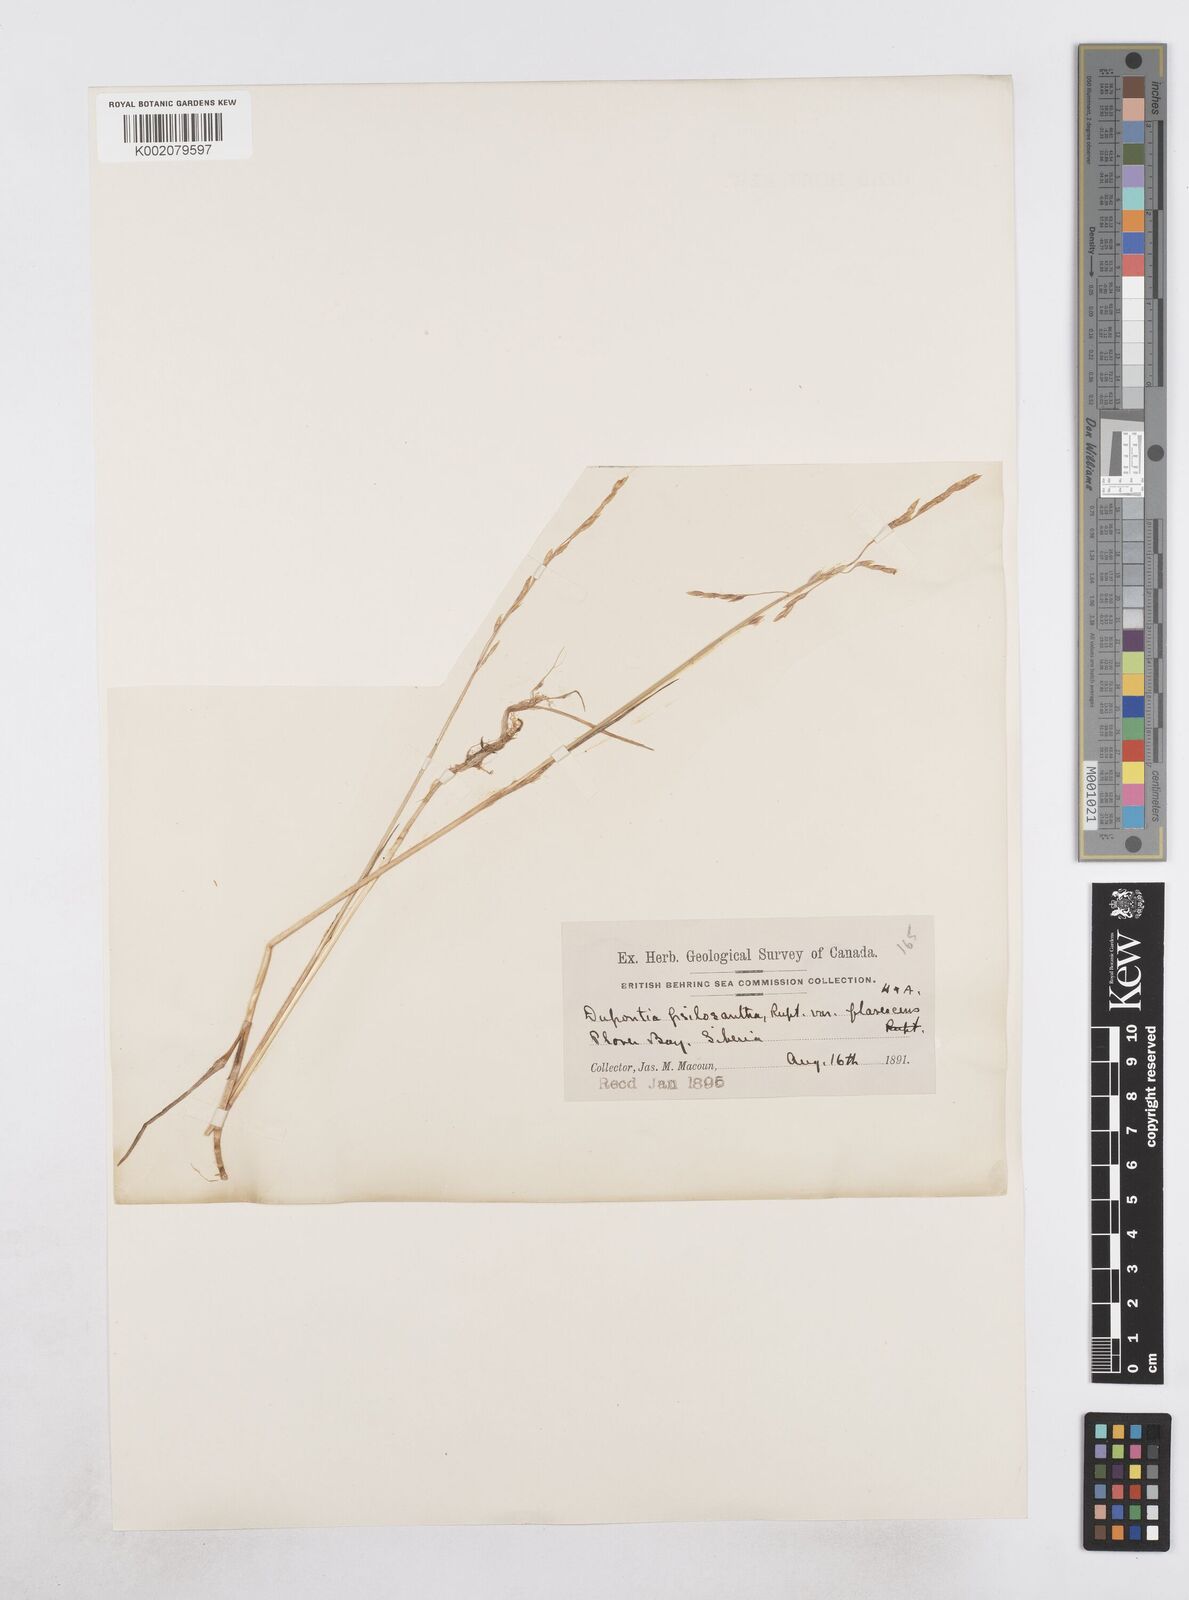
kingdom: Plantae
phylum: Tracheophyta
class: Liliopsida
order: Poales
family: Poaceae
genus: Dupontia
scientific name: Dupontia fisheri
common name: Tundra grass
